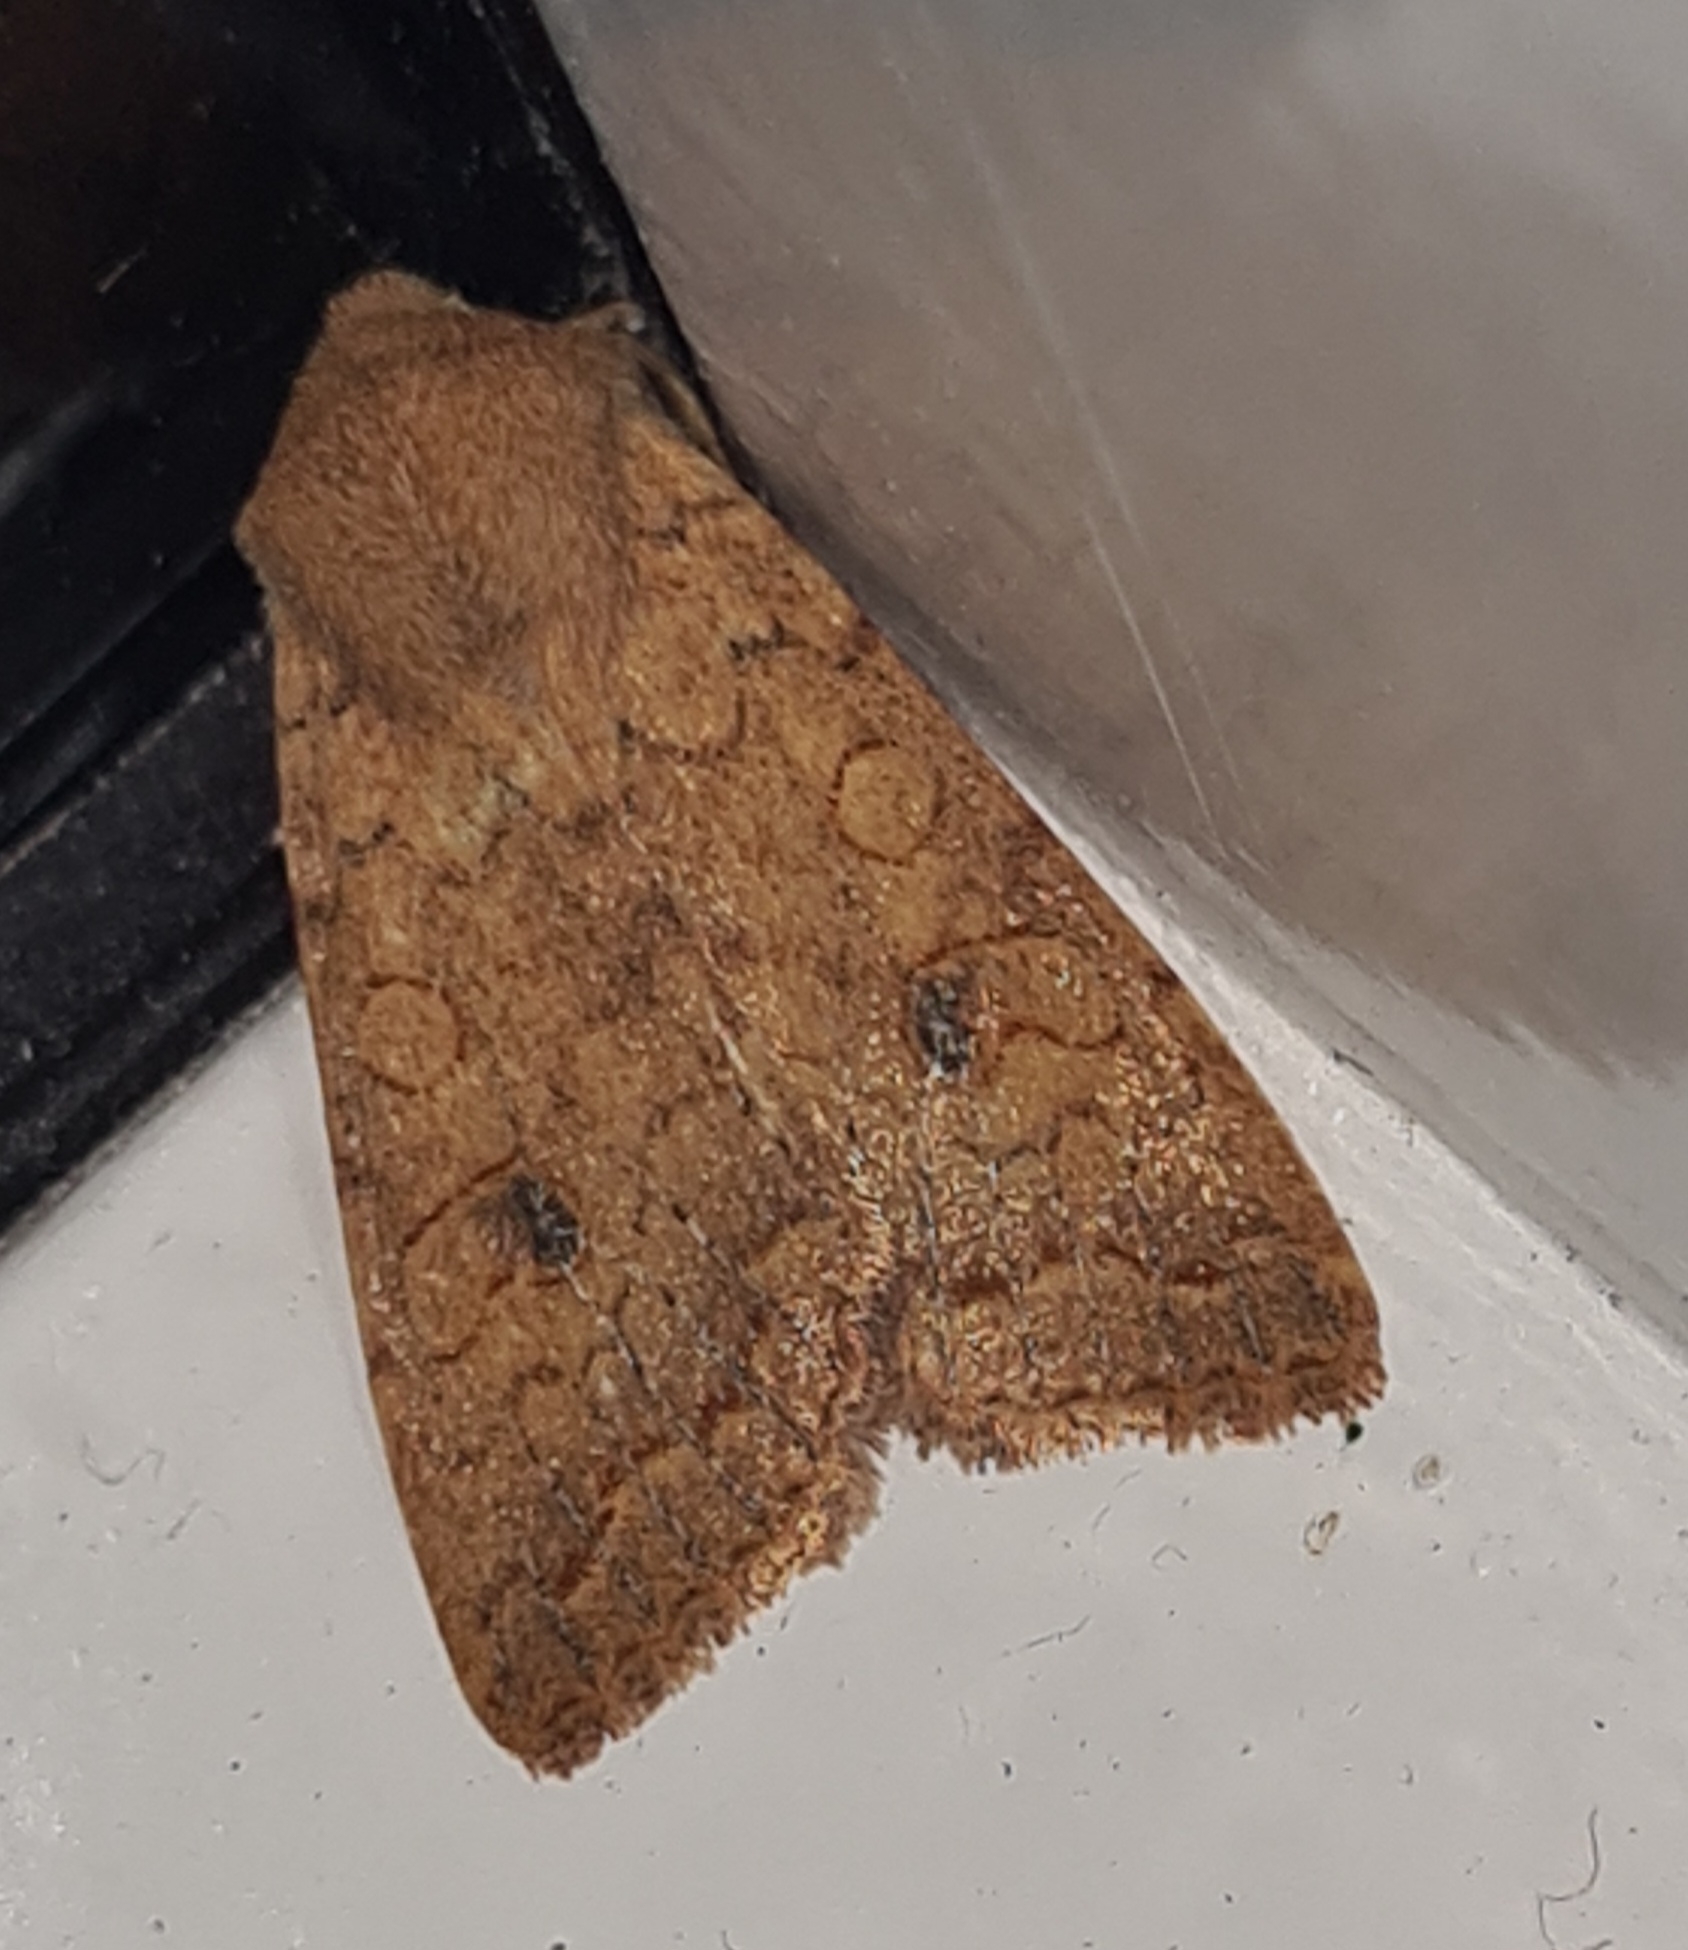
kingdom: Animalia
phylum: Arthropoda
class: Insecta
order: Lepidoptera
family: Noctuidae
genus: Sunira
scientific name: Sunira circellaris
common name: Cirkel-jordfarveugle
